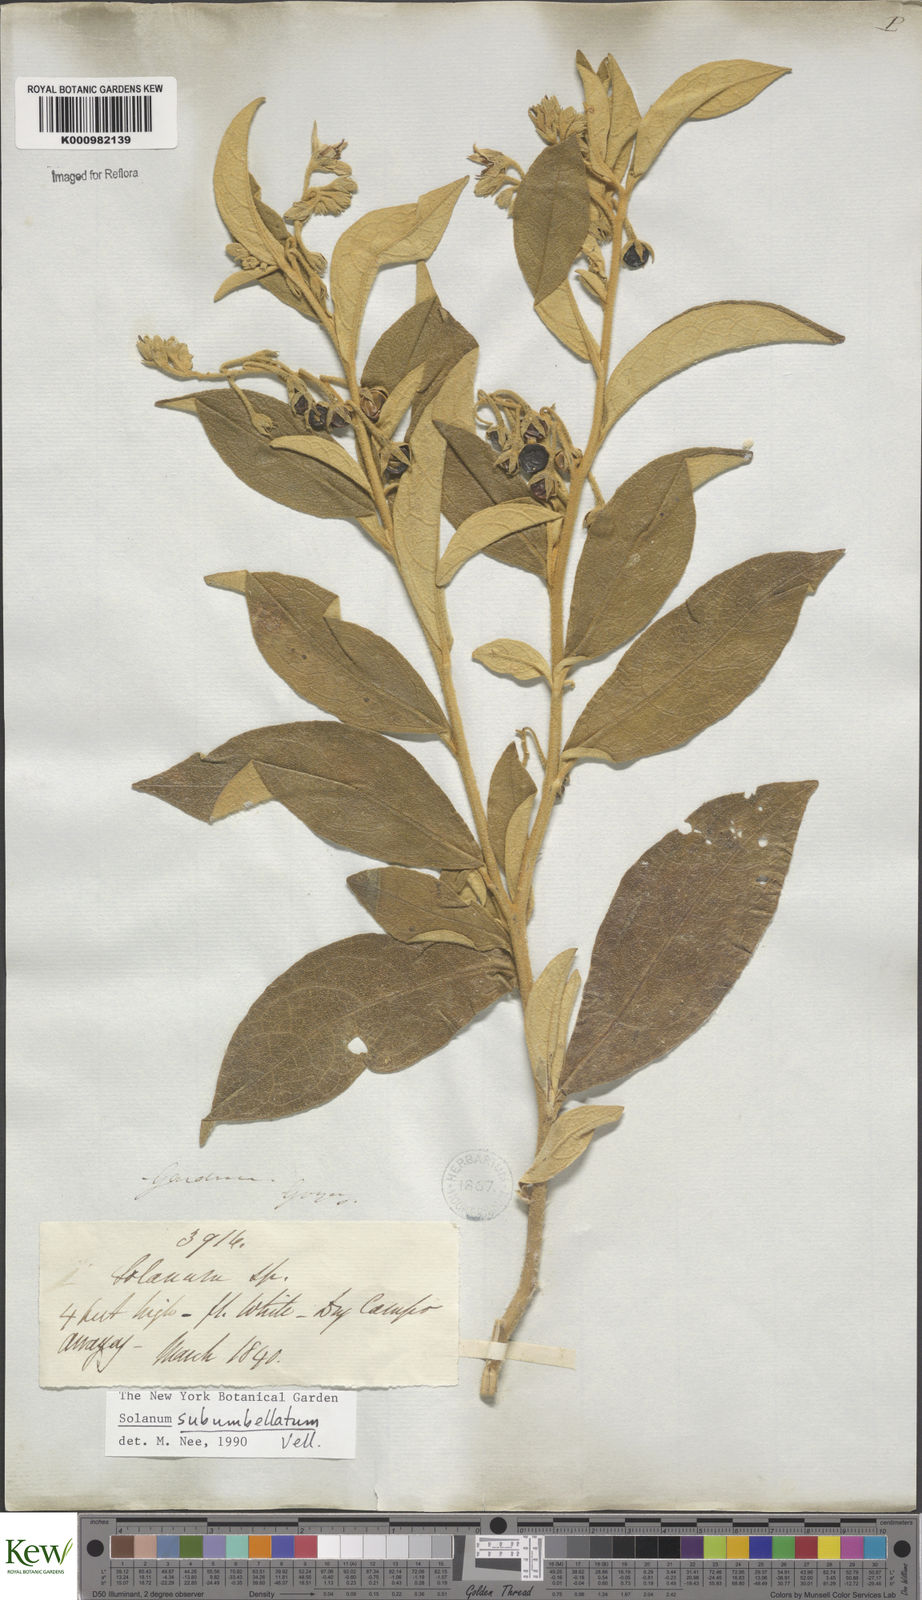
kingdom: Plantae
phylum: Tracheophyta
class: Magnoliopsida
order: Solanales
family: Solanaceae
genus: Solanum
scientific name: Solanum subumbellatum
